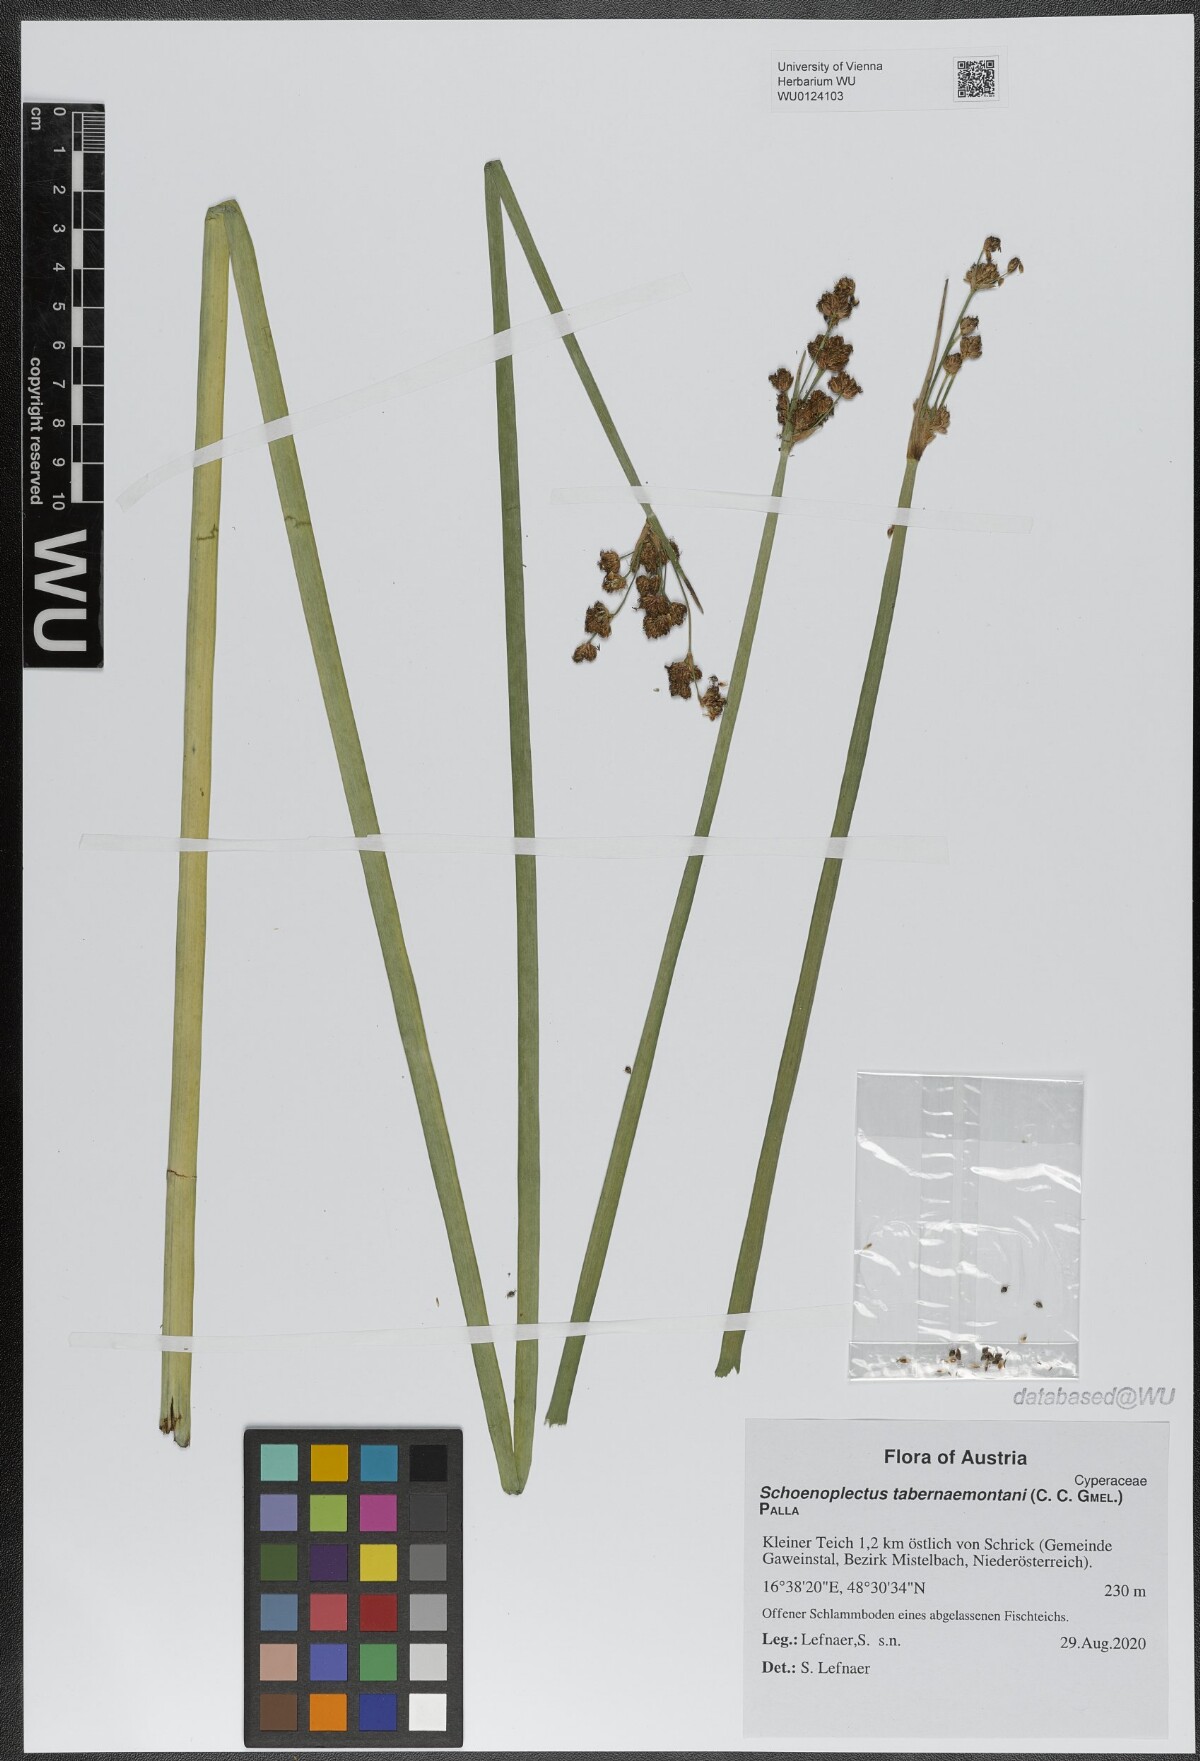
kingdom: Plantae
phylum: Tracheophyta
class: Liliopsida
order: Poales
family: Cyperaceae
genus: Schoenoplectus
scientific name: Schoenoplectus tabernaemontani
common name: Grey club-rush
